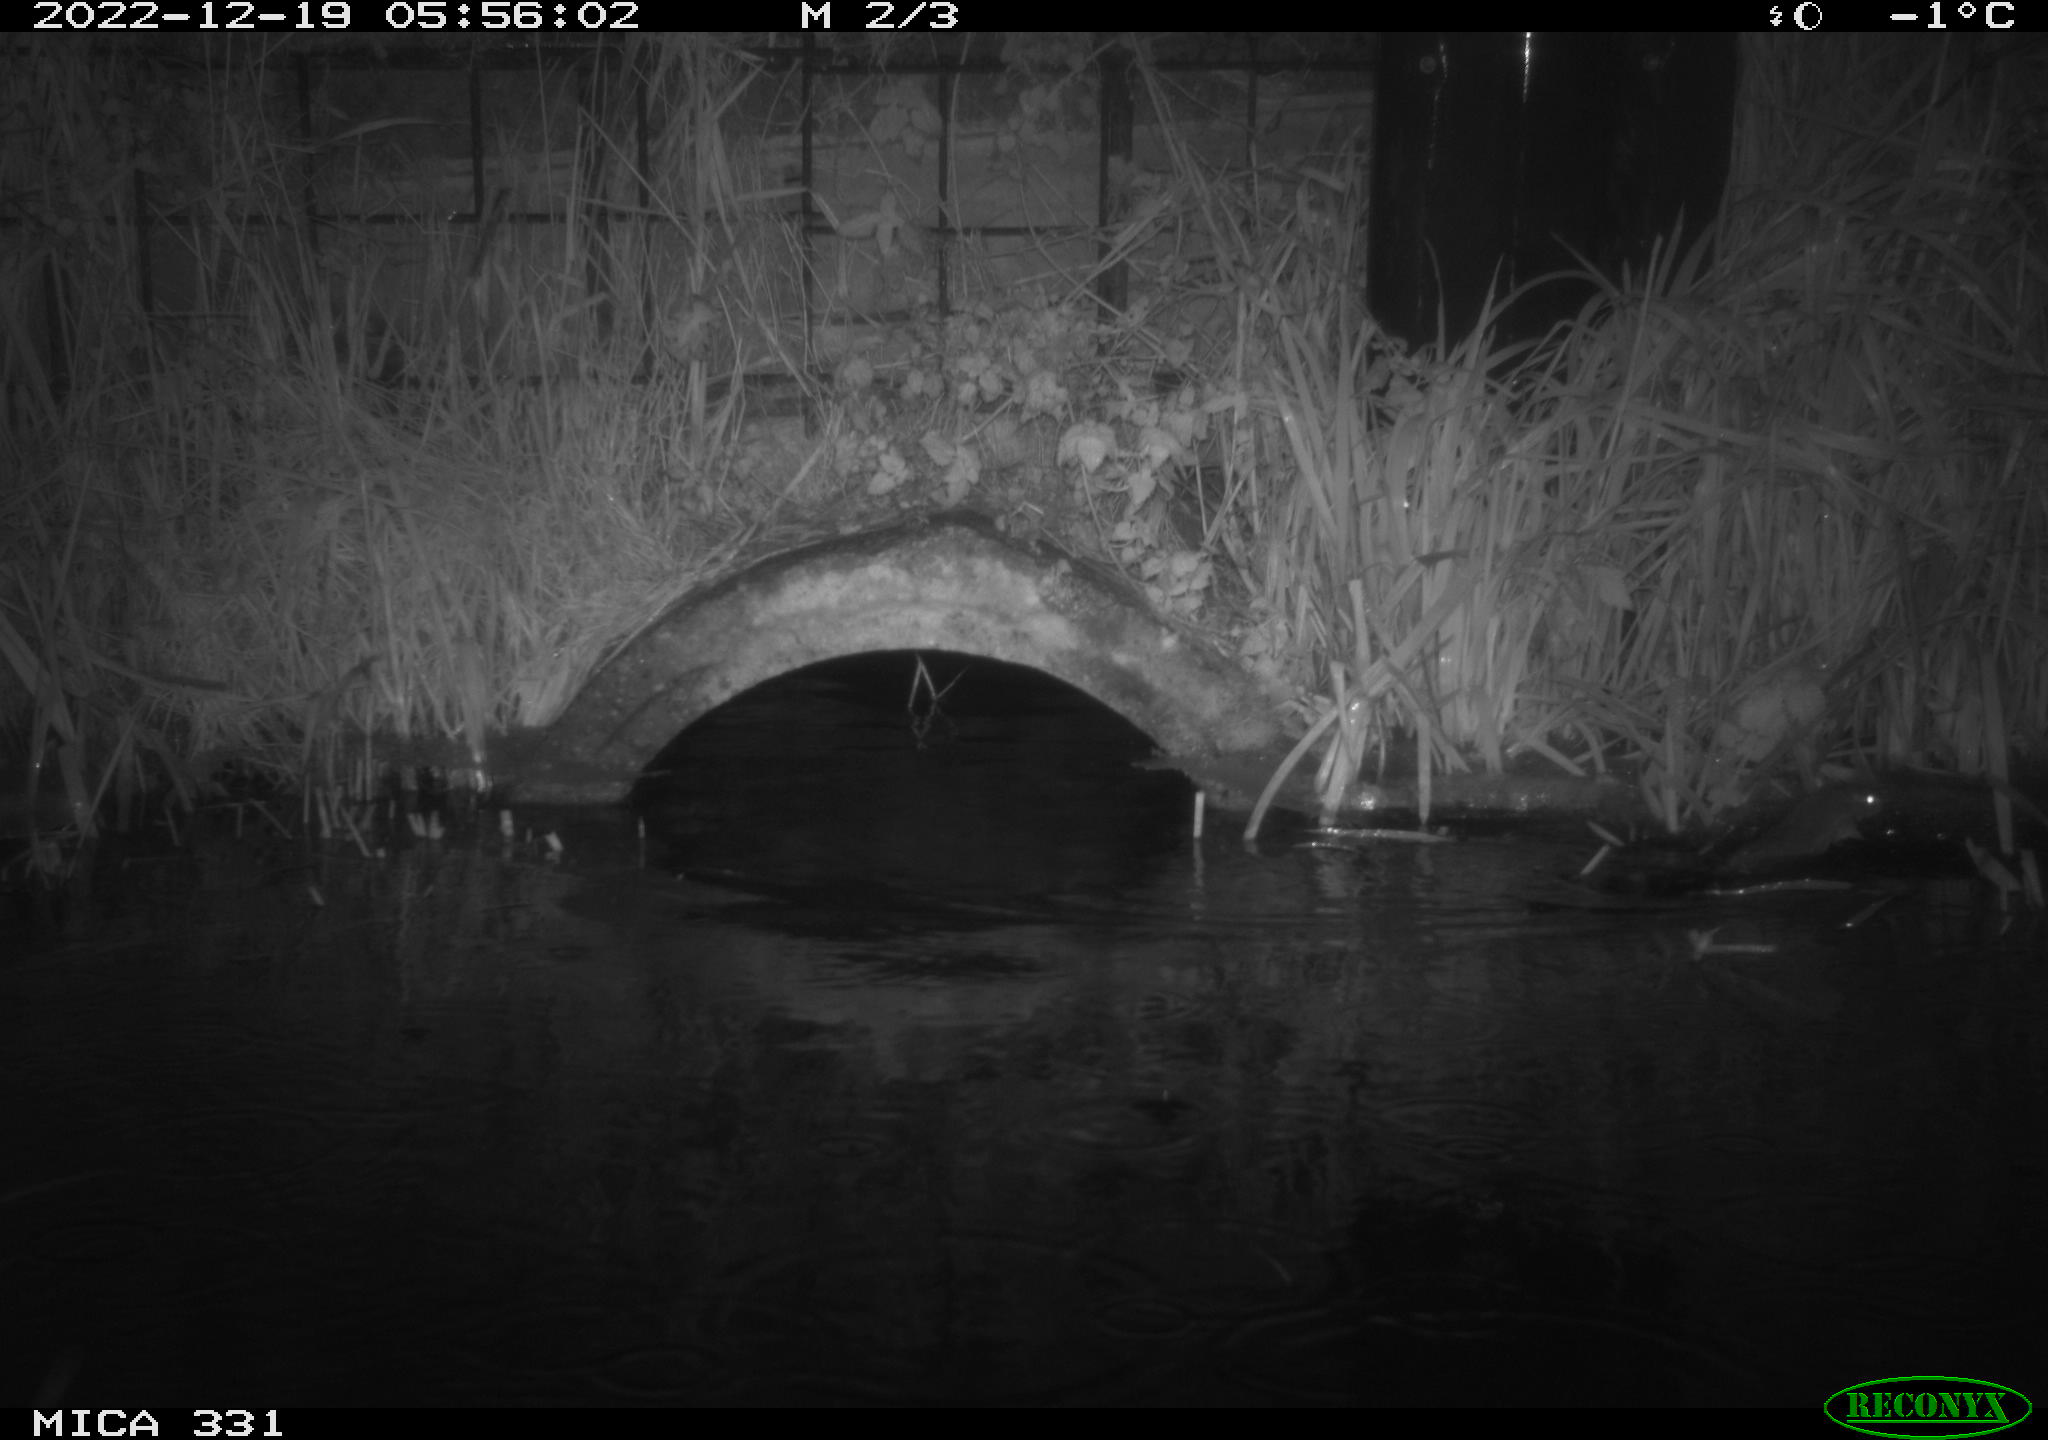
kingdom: Animalia
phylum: Chordata
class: Mammalia
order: Rodentia
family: Muridae
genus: Rattus
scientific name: Rattus norvegicus
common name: Brown rat
